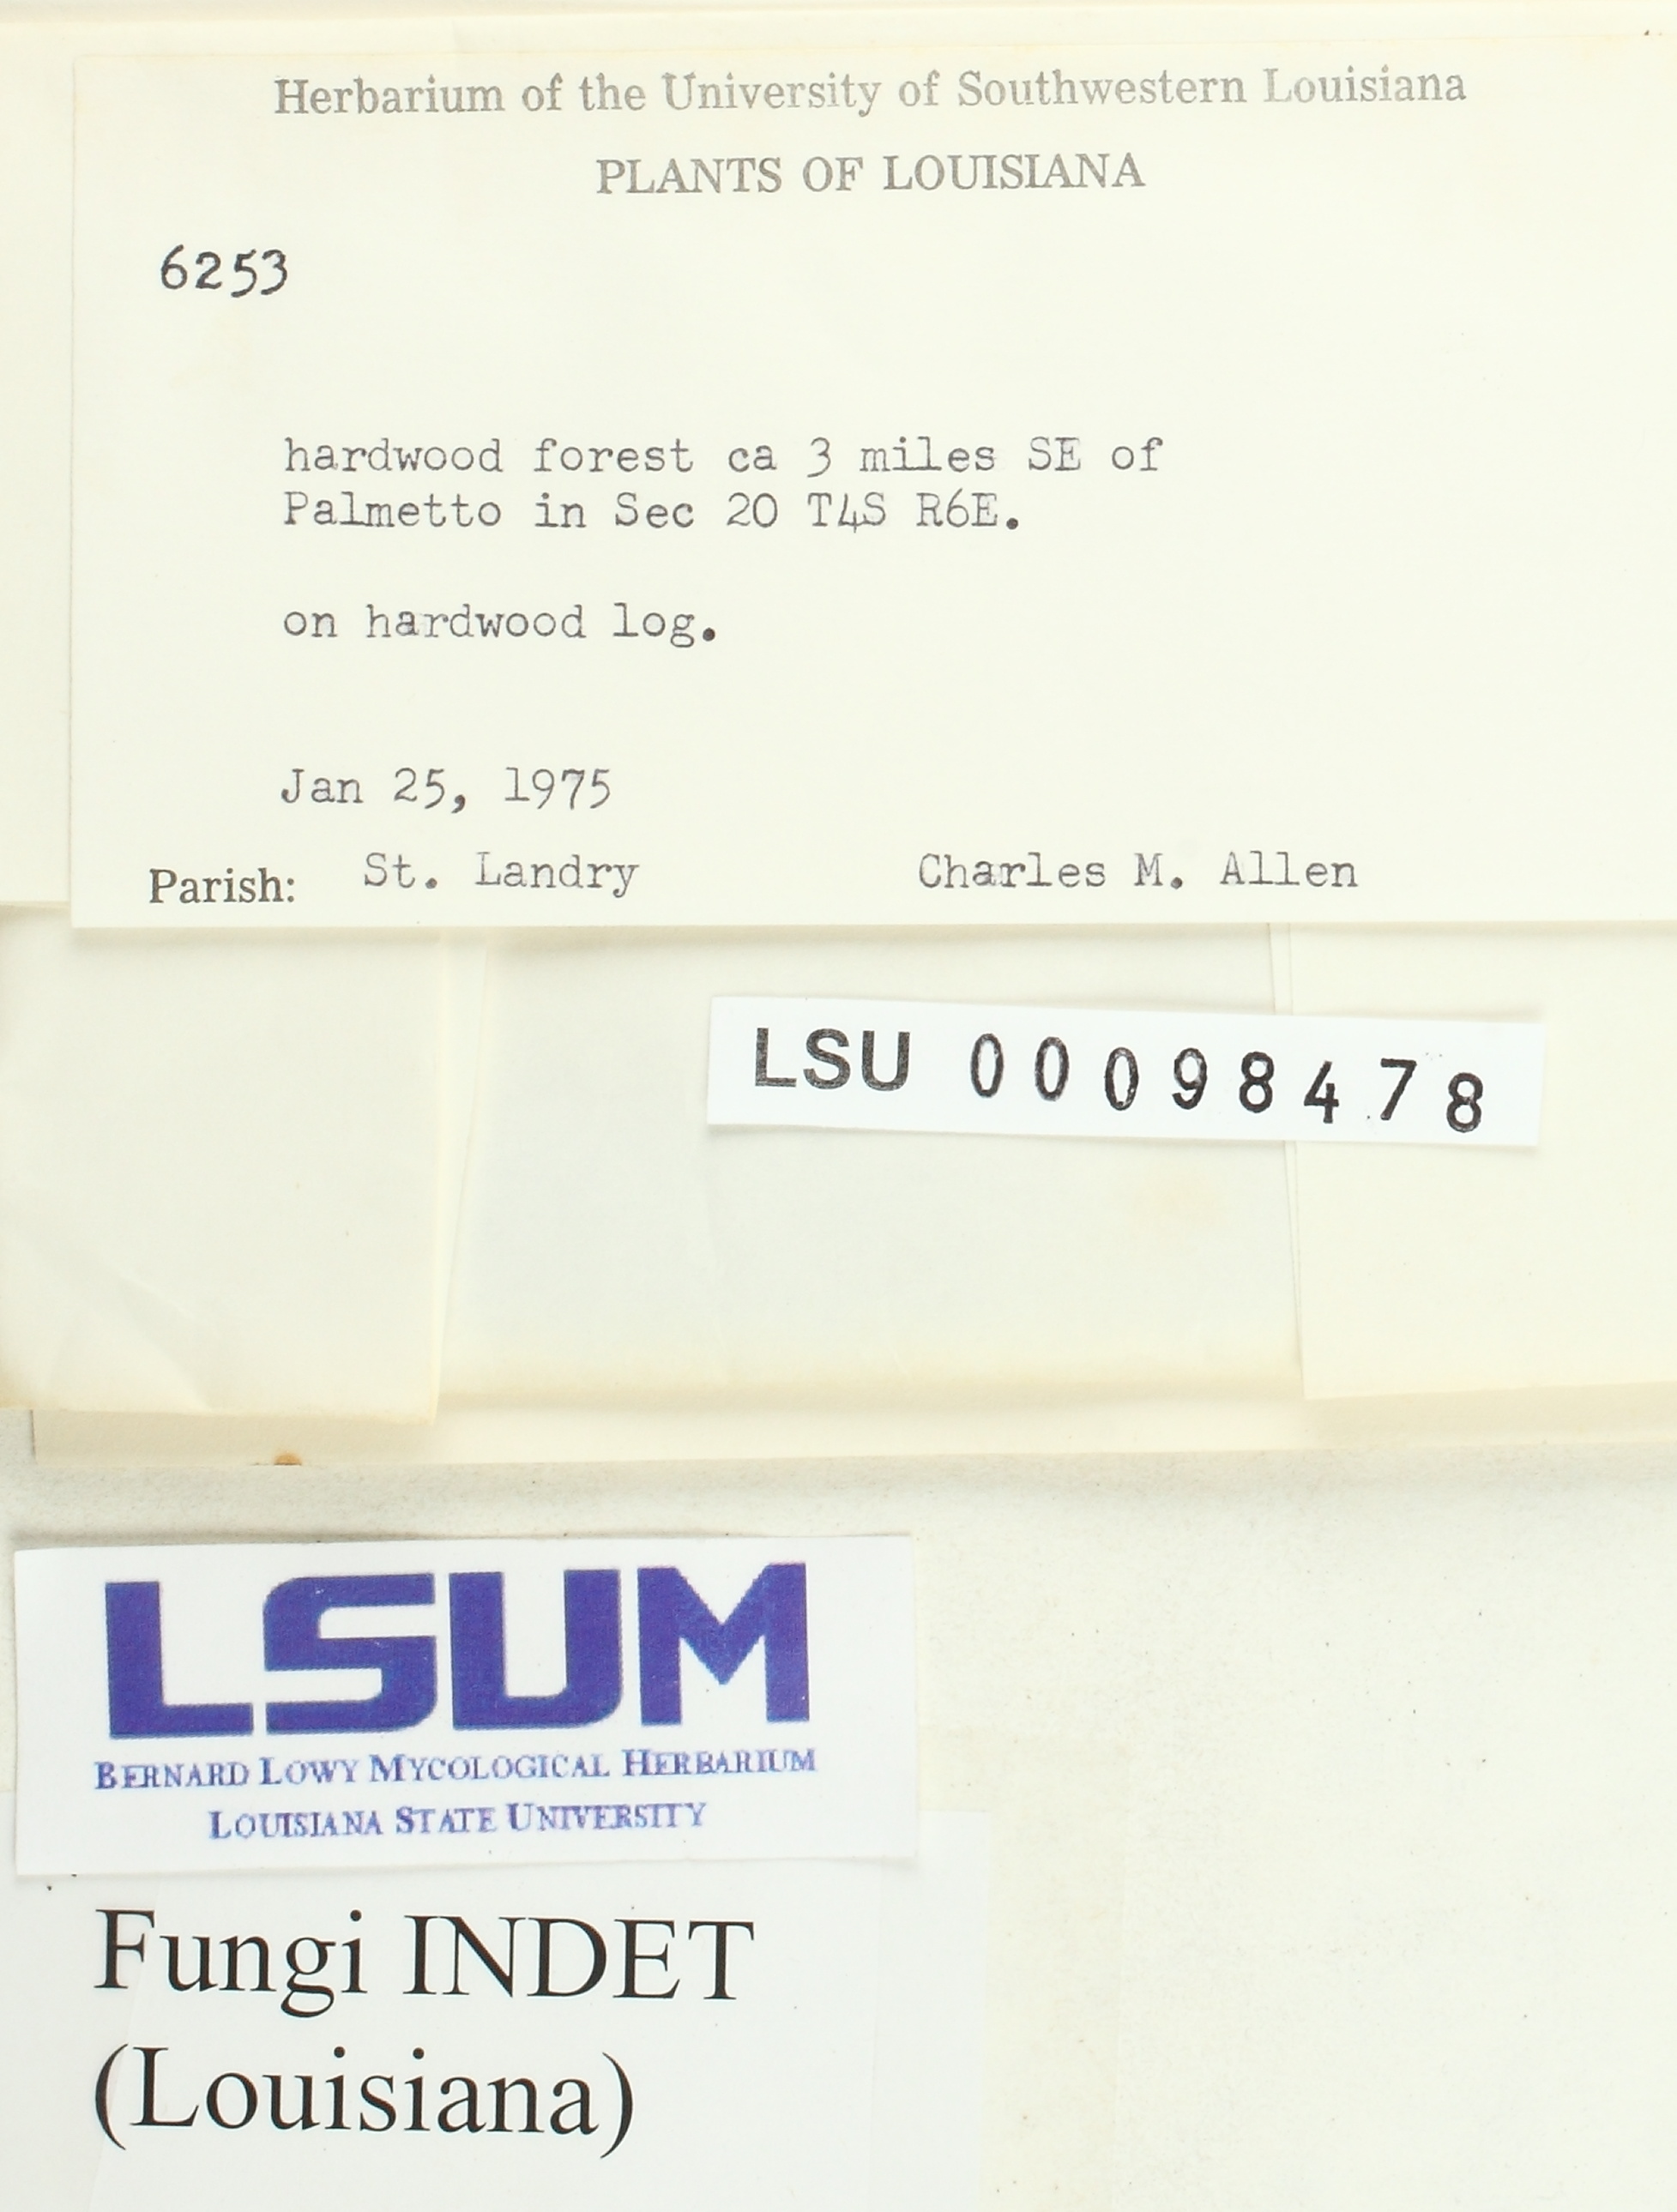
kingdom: Fungi
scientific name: Fungi
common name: Fungi
